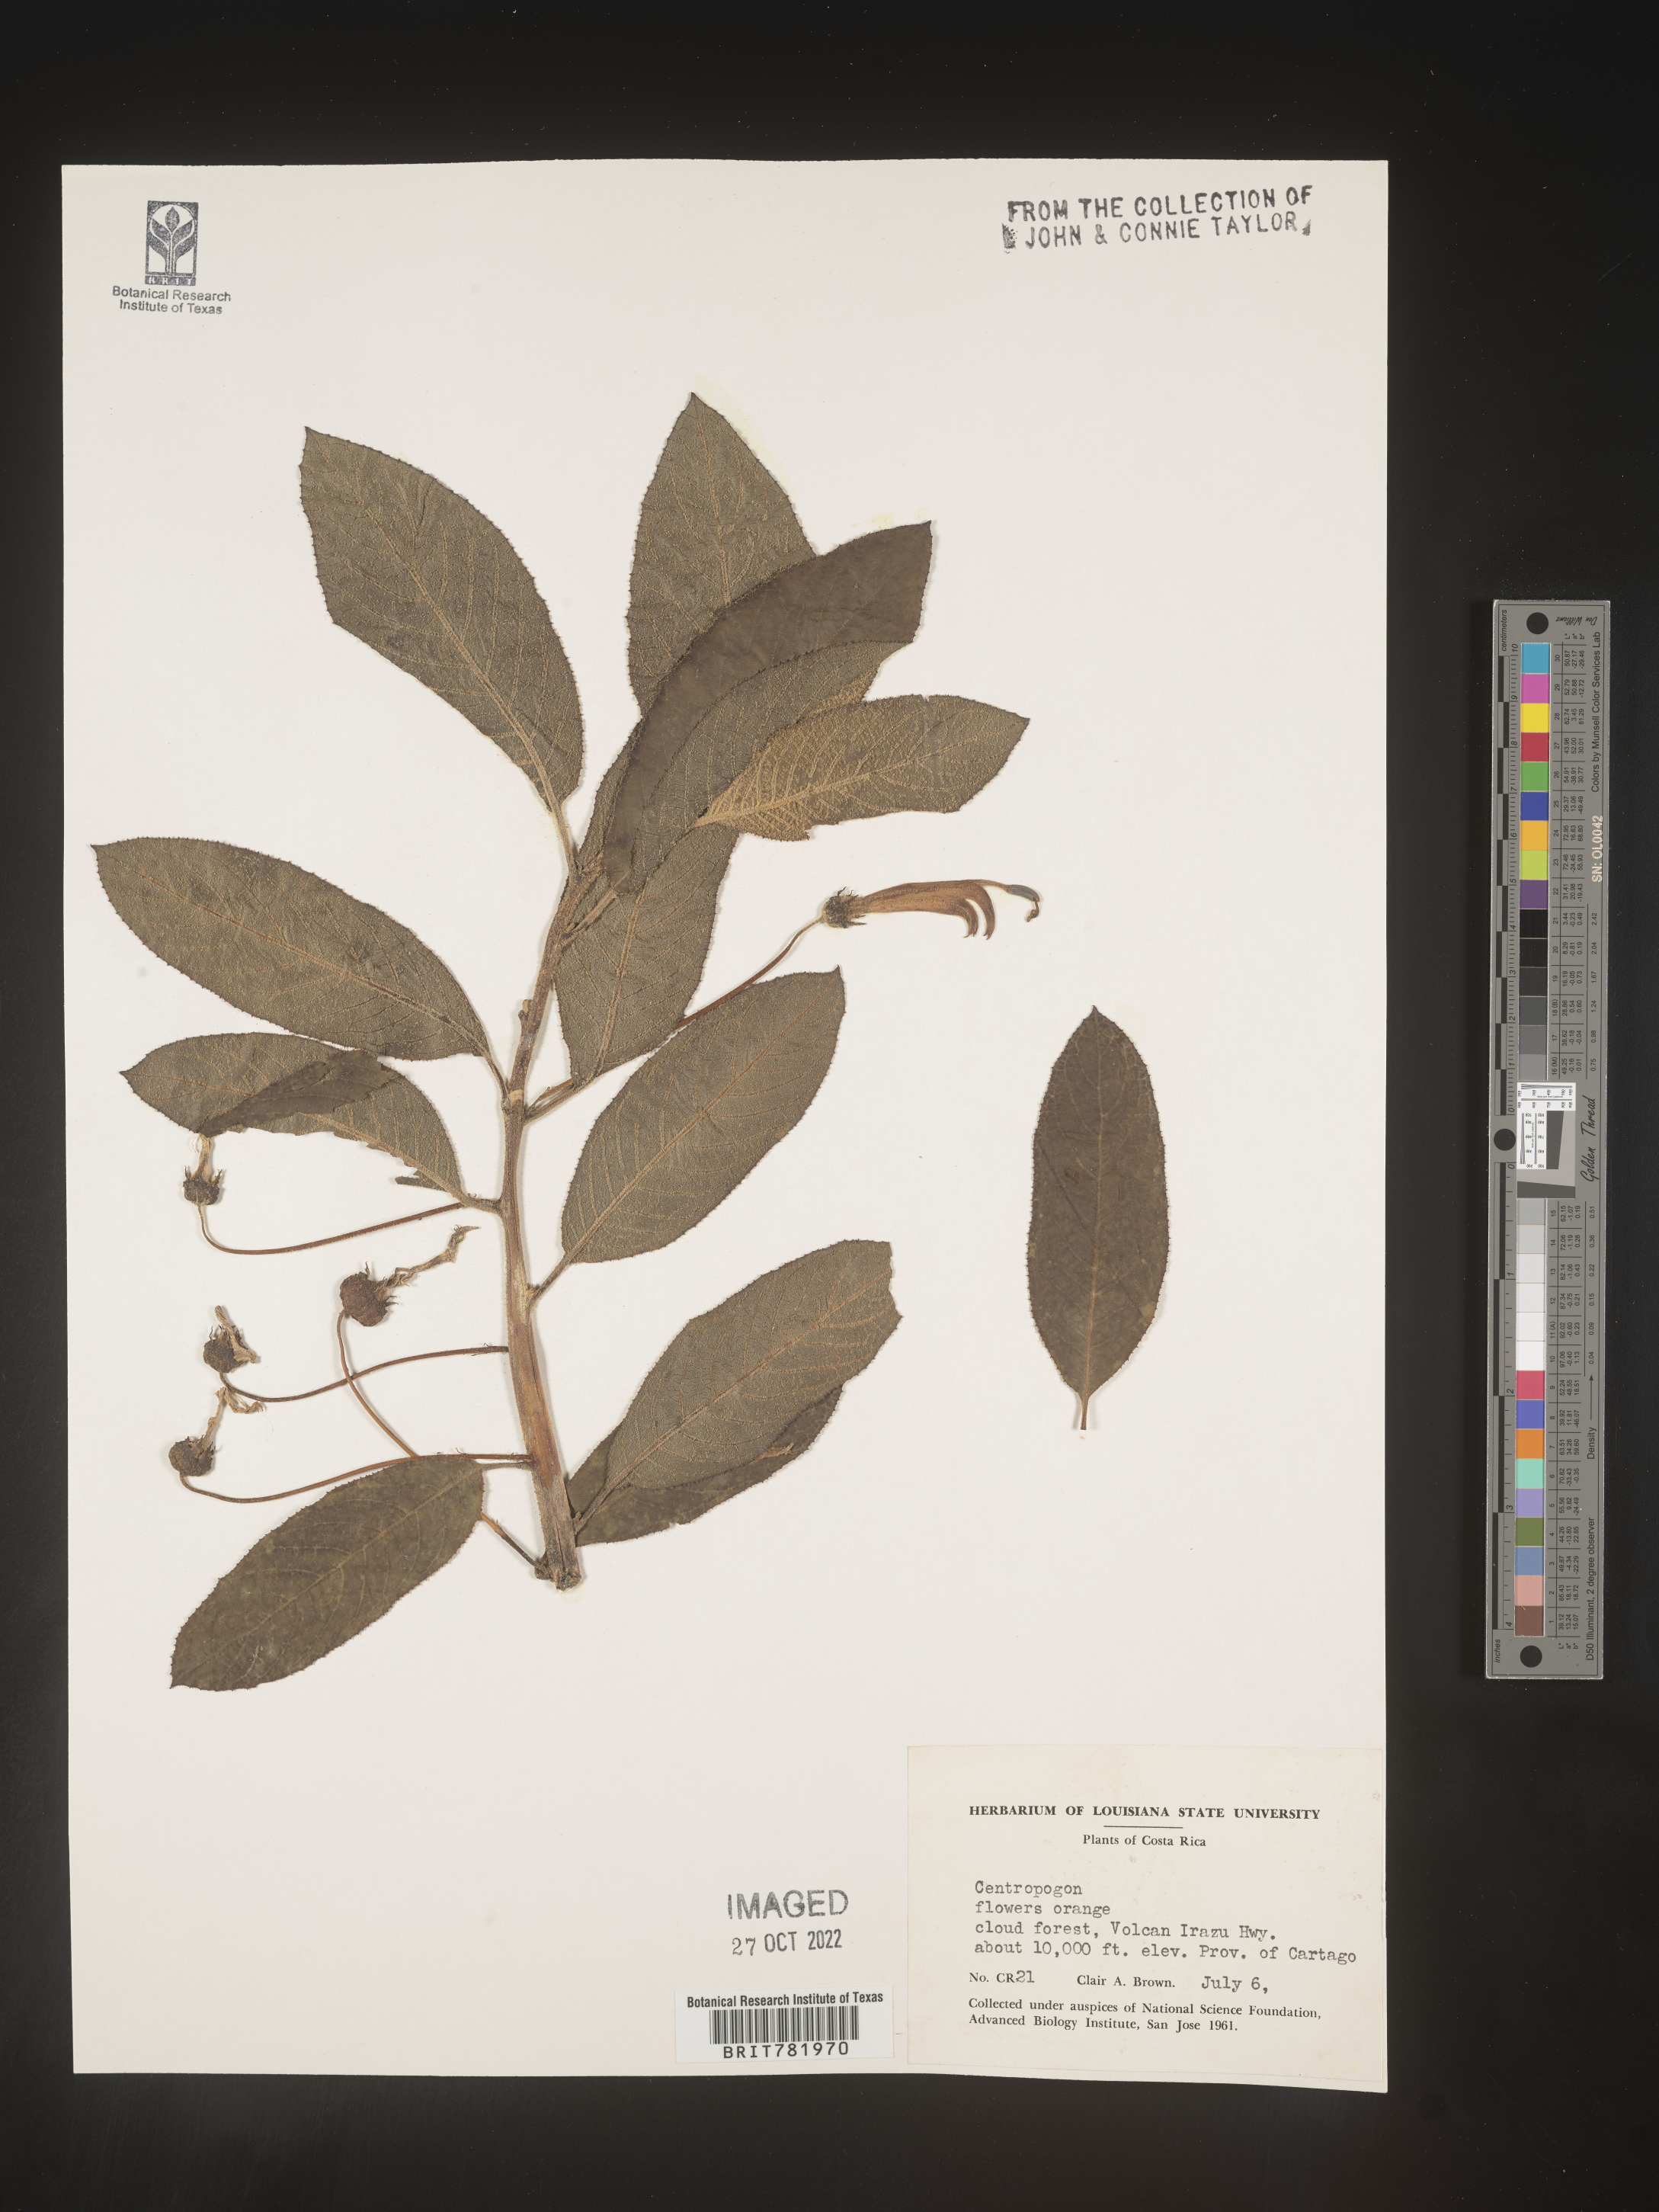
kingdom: Plantae
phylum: Tracheophyta
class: Magnoliopsida
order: Asterales
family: Campanulaceae
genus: Centropogon
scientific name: Centropogon
